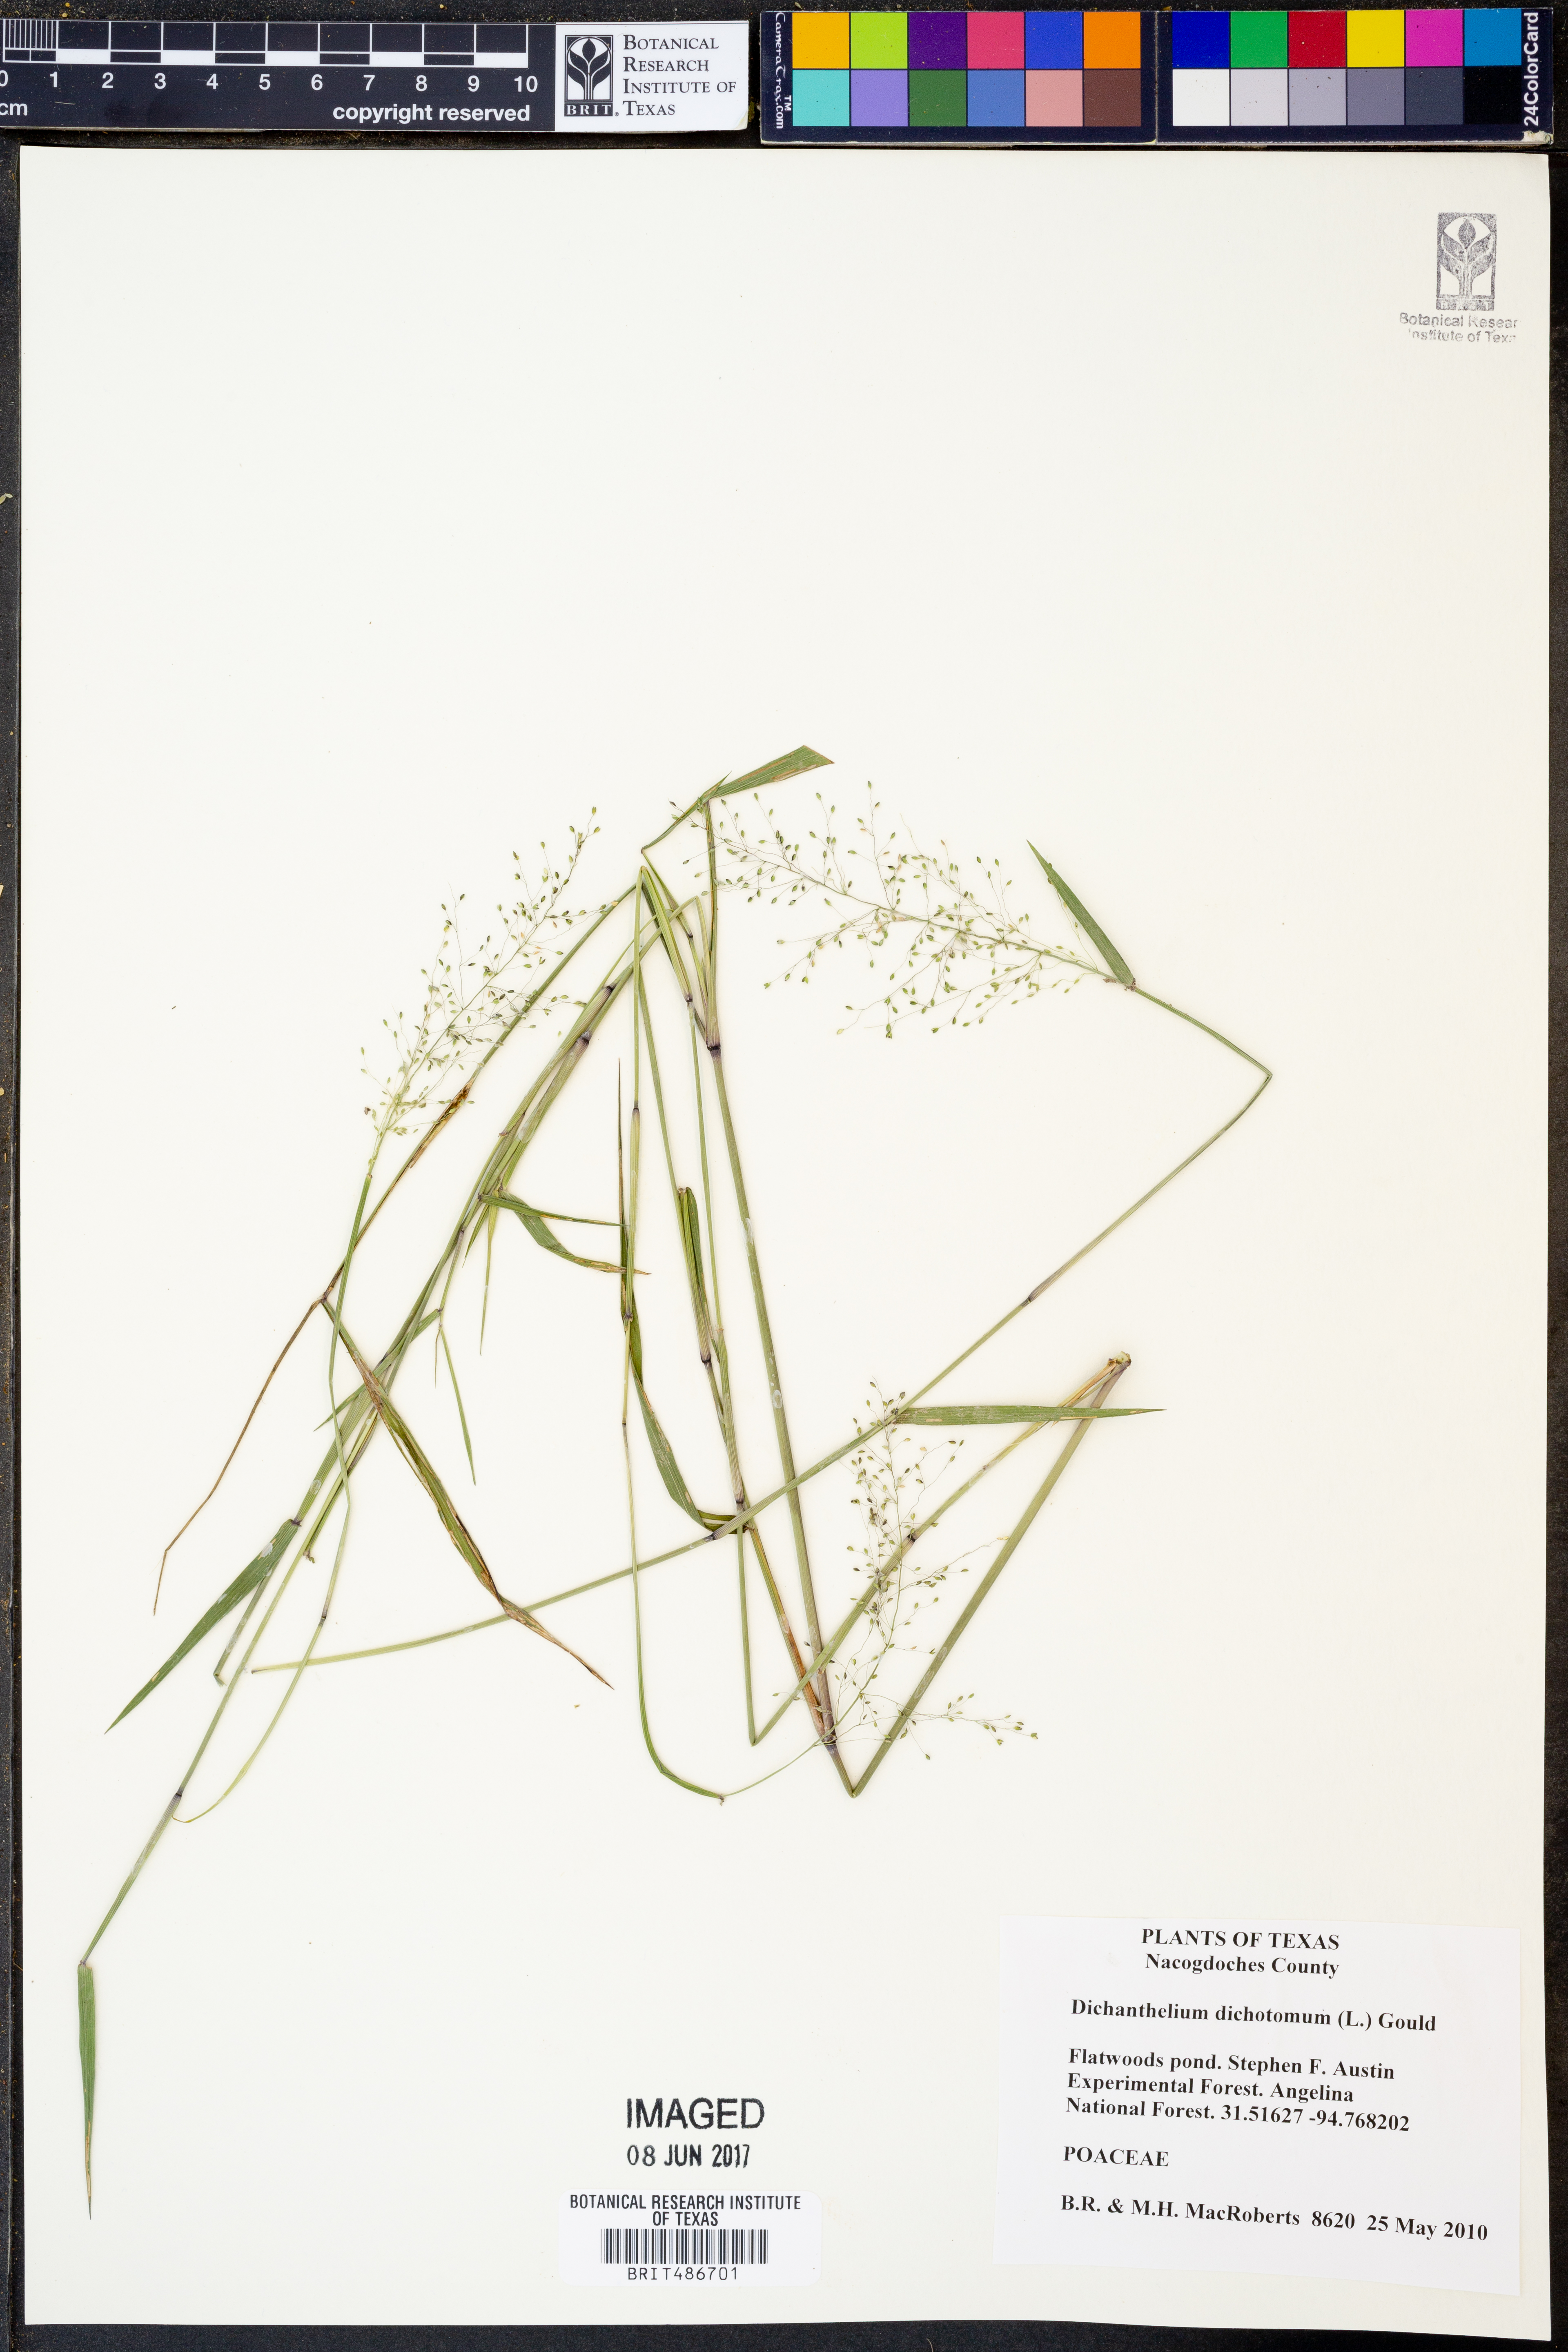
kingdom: Plantae
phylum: Tracheophyta
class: Liliopsida
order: Poales
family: Poaceae
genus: Dichanthelium
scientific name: Dichanthelium dichotomum
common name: Cypress panicgrass
